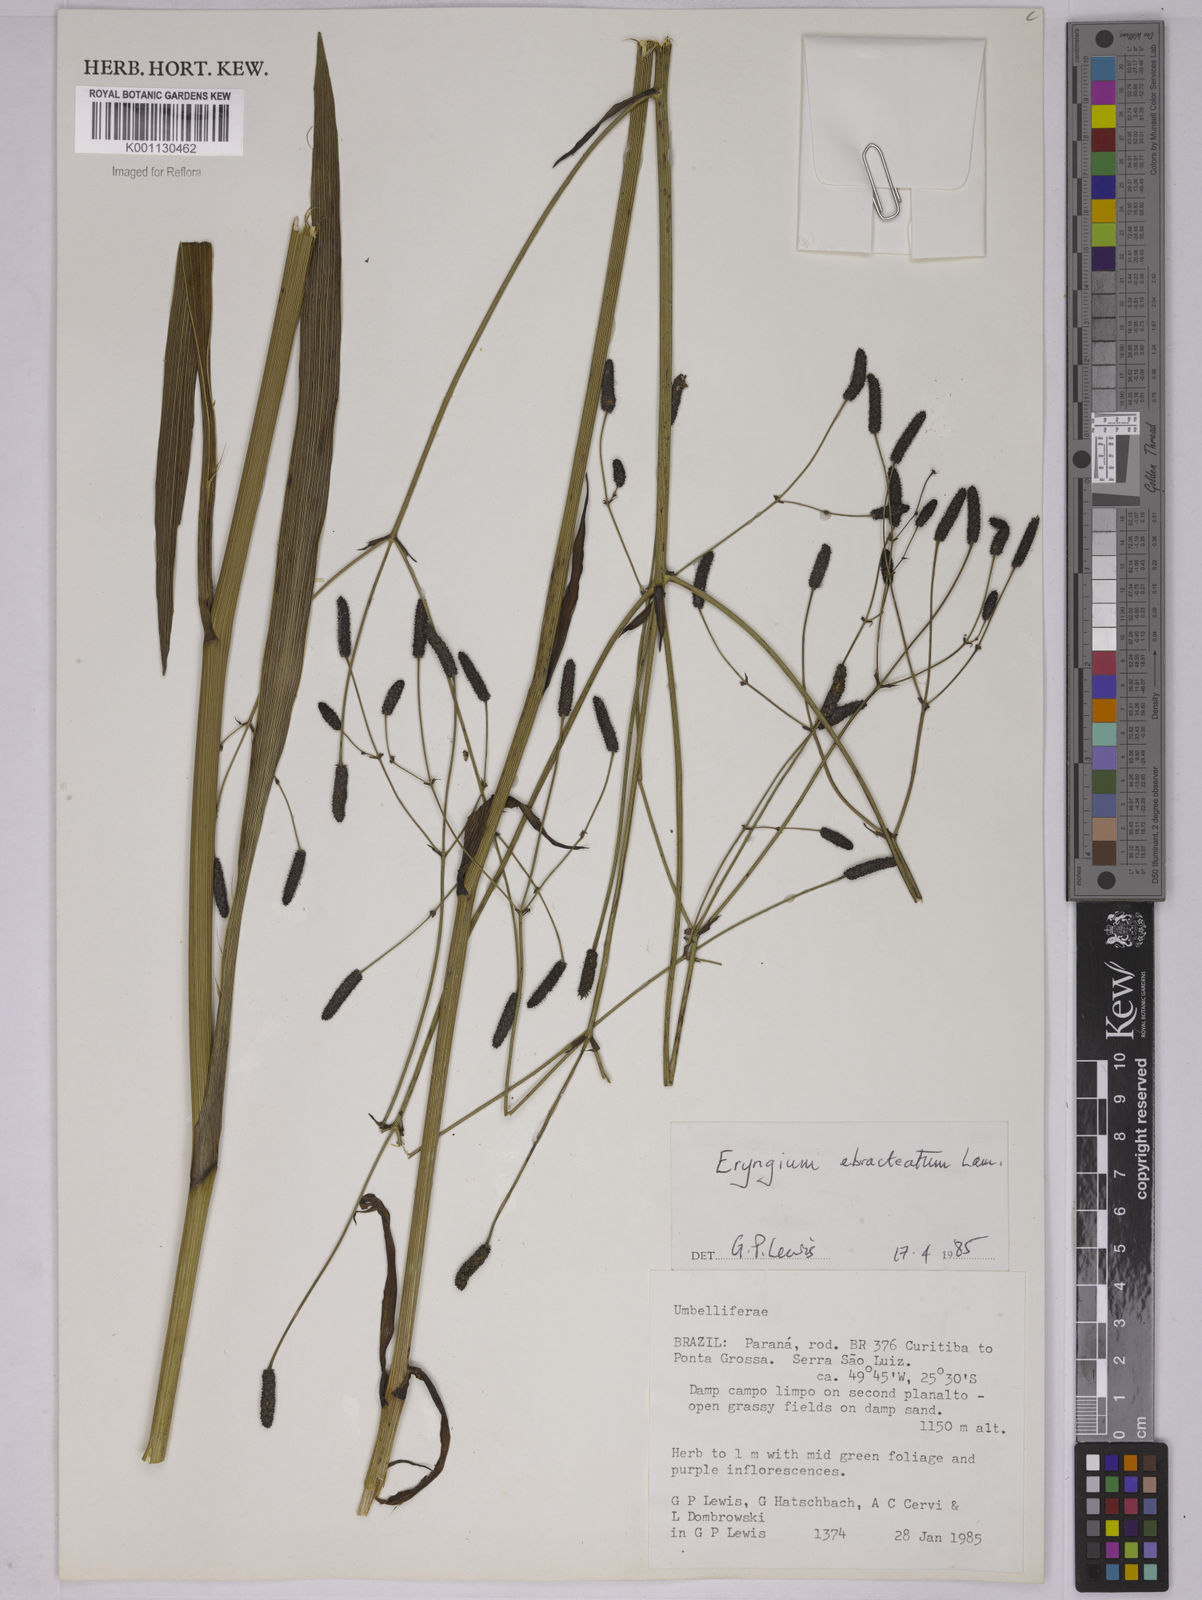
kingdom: Plantae
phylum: Tracheophyta
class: Magnoliopsida
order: Apiales
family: Apiaceae
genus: Eryngium
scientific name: Eryngium ebracteatum
